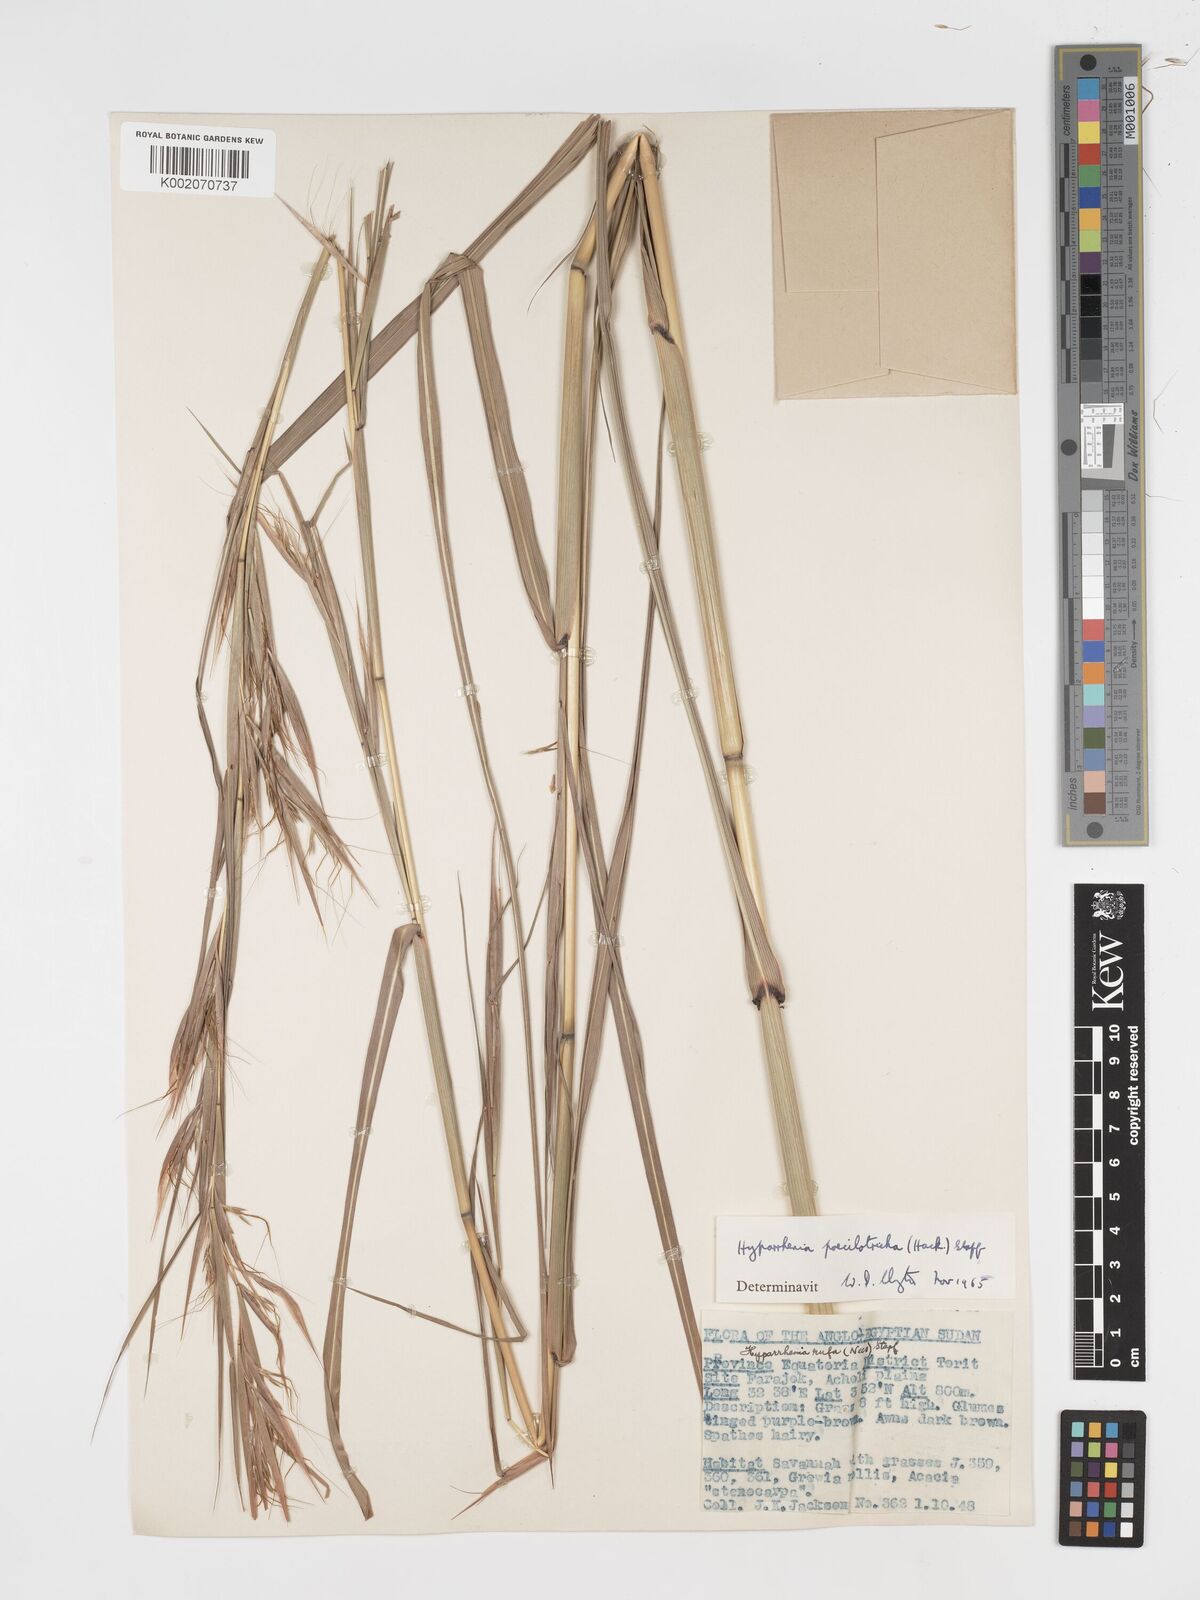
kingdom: Plantae
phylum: Tracheophyta
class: Liliopsida
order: Poales
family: Poaceae
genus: Hyparrhenia
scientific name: Hyparrhenia poecilotricha
